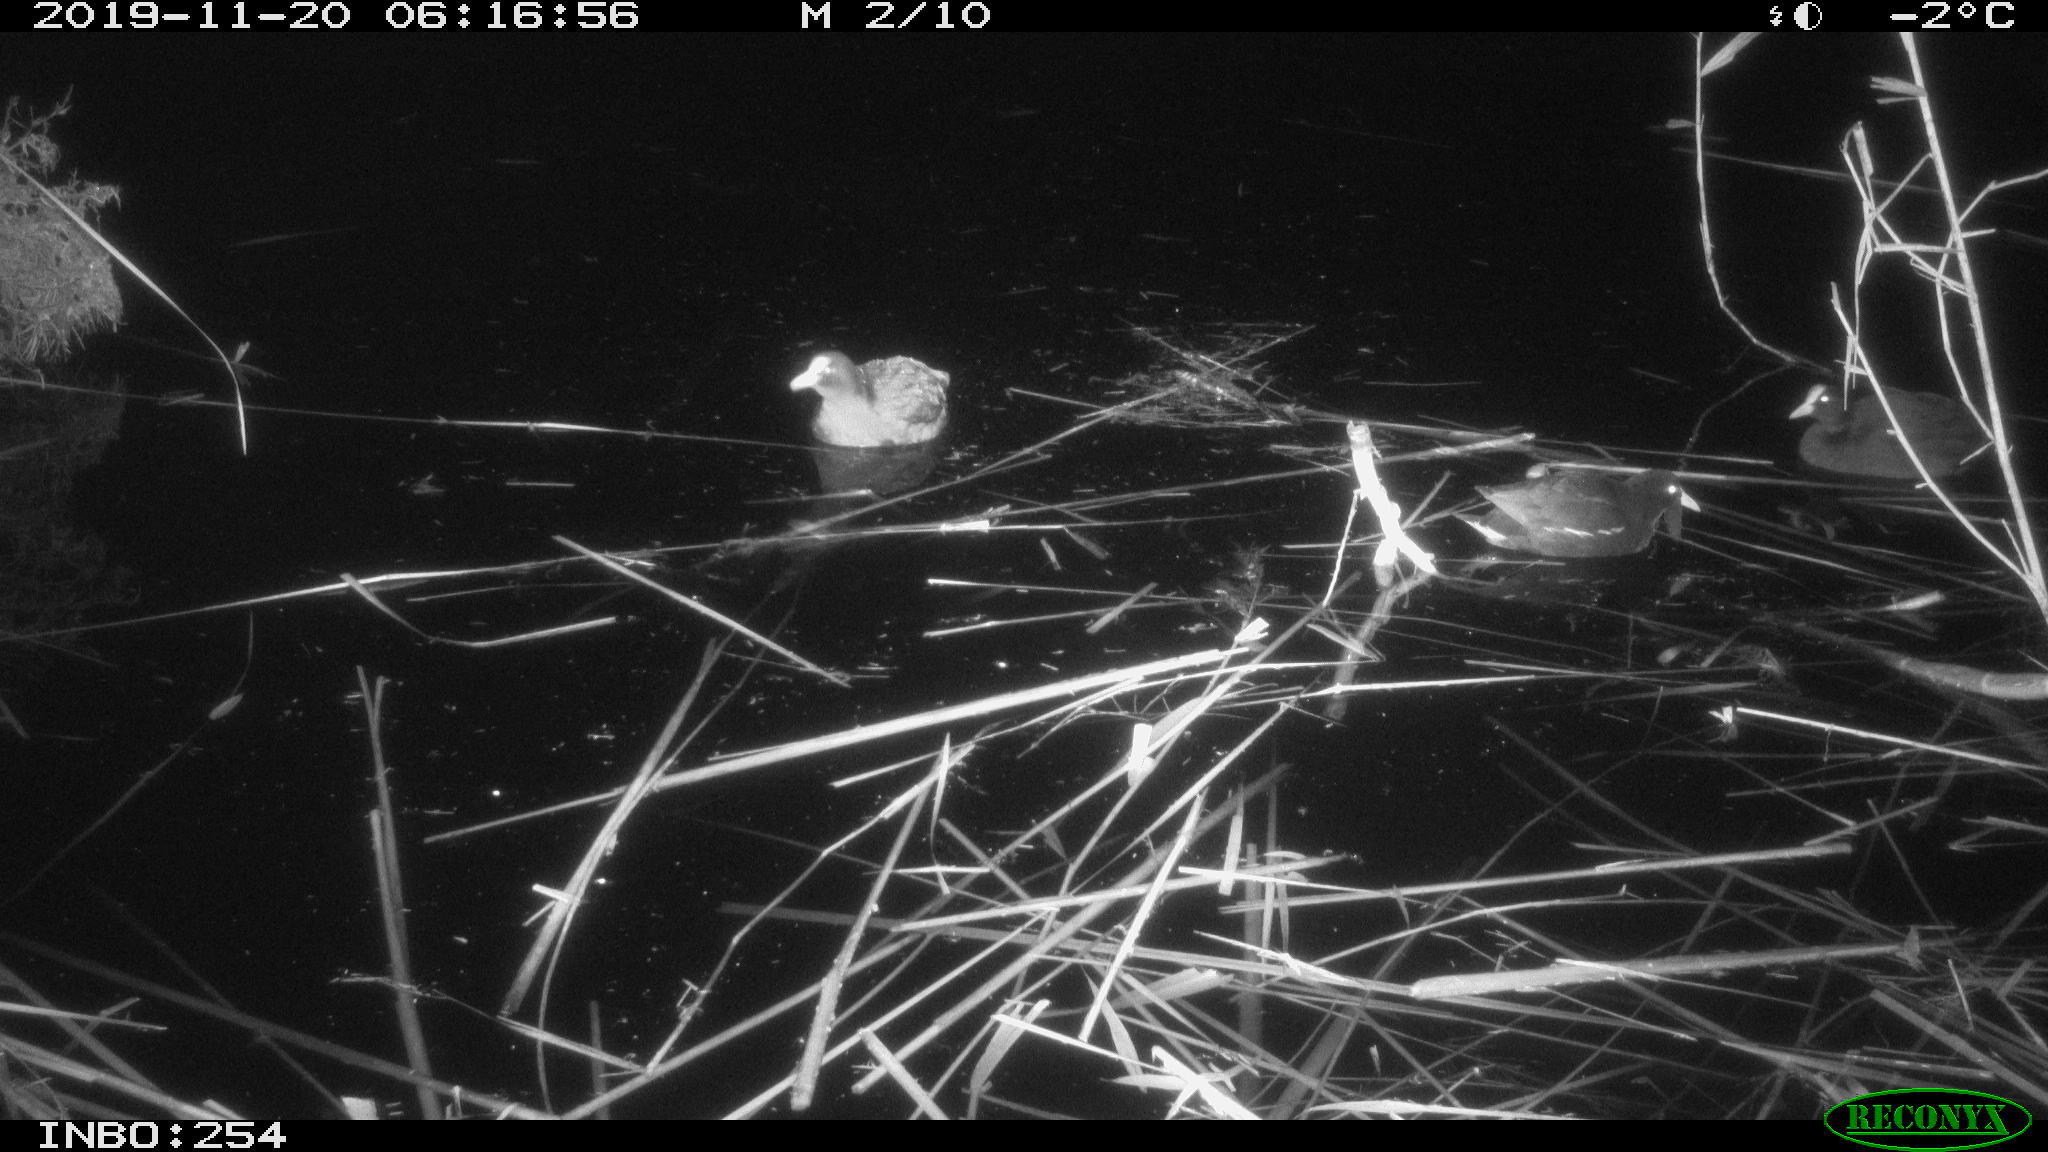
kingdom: Animalia
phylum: Chordata
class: Aves
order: Gruiformes
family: Rallidae
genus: Fulica
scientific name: Fulica atra
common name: Eurasian coot
